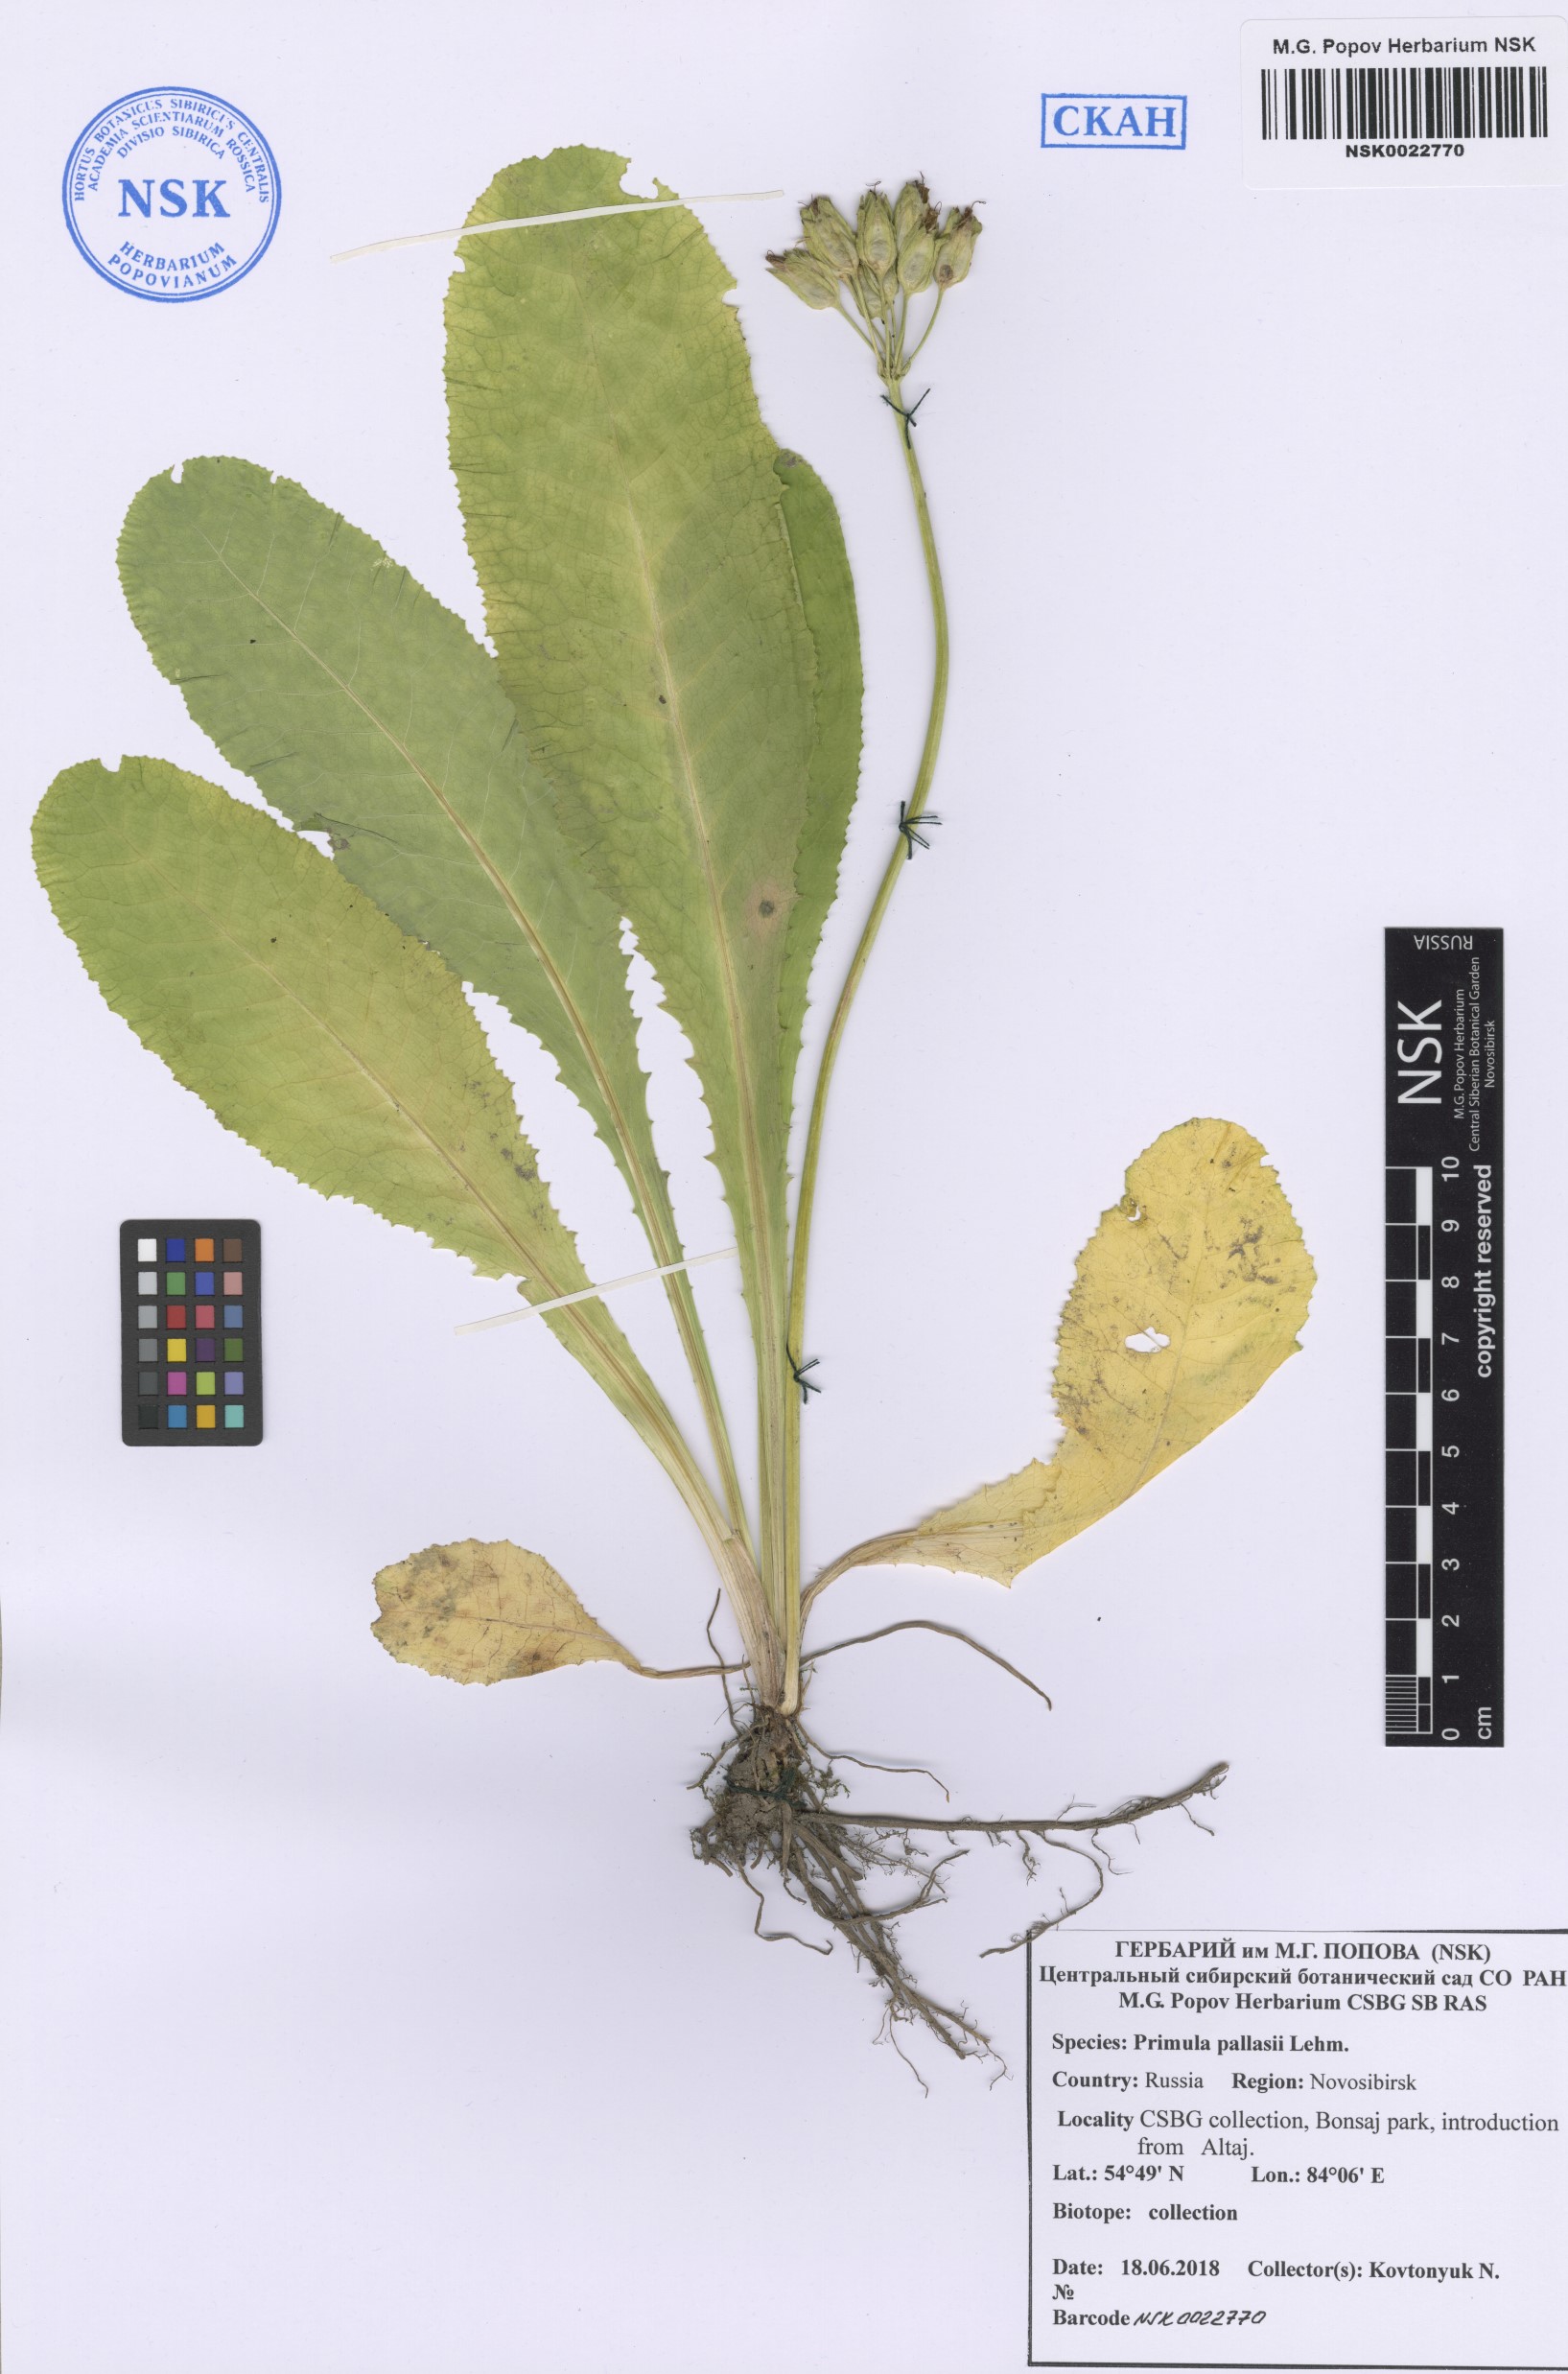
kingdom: Plantae
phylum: Tracheophyta
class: Magnoliopsida
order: Ericales
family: Primulaceae
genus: Primula
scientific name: Primula elatior
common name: Oxlip
